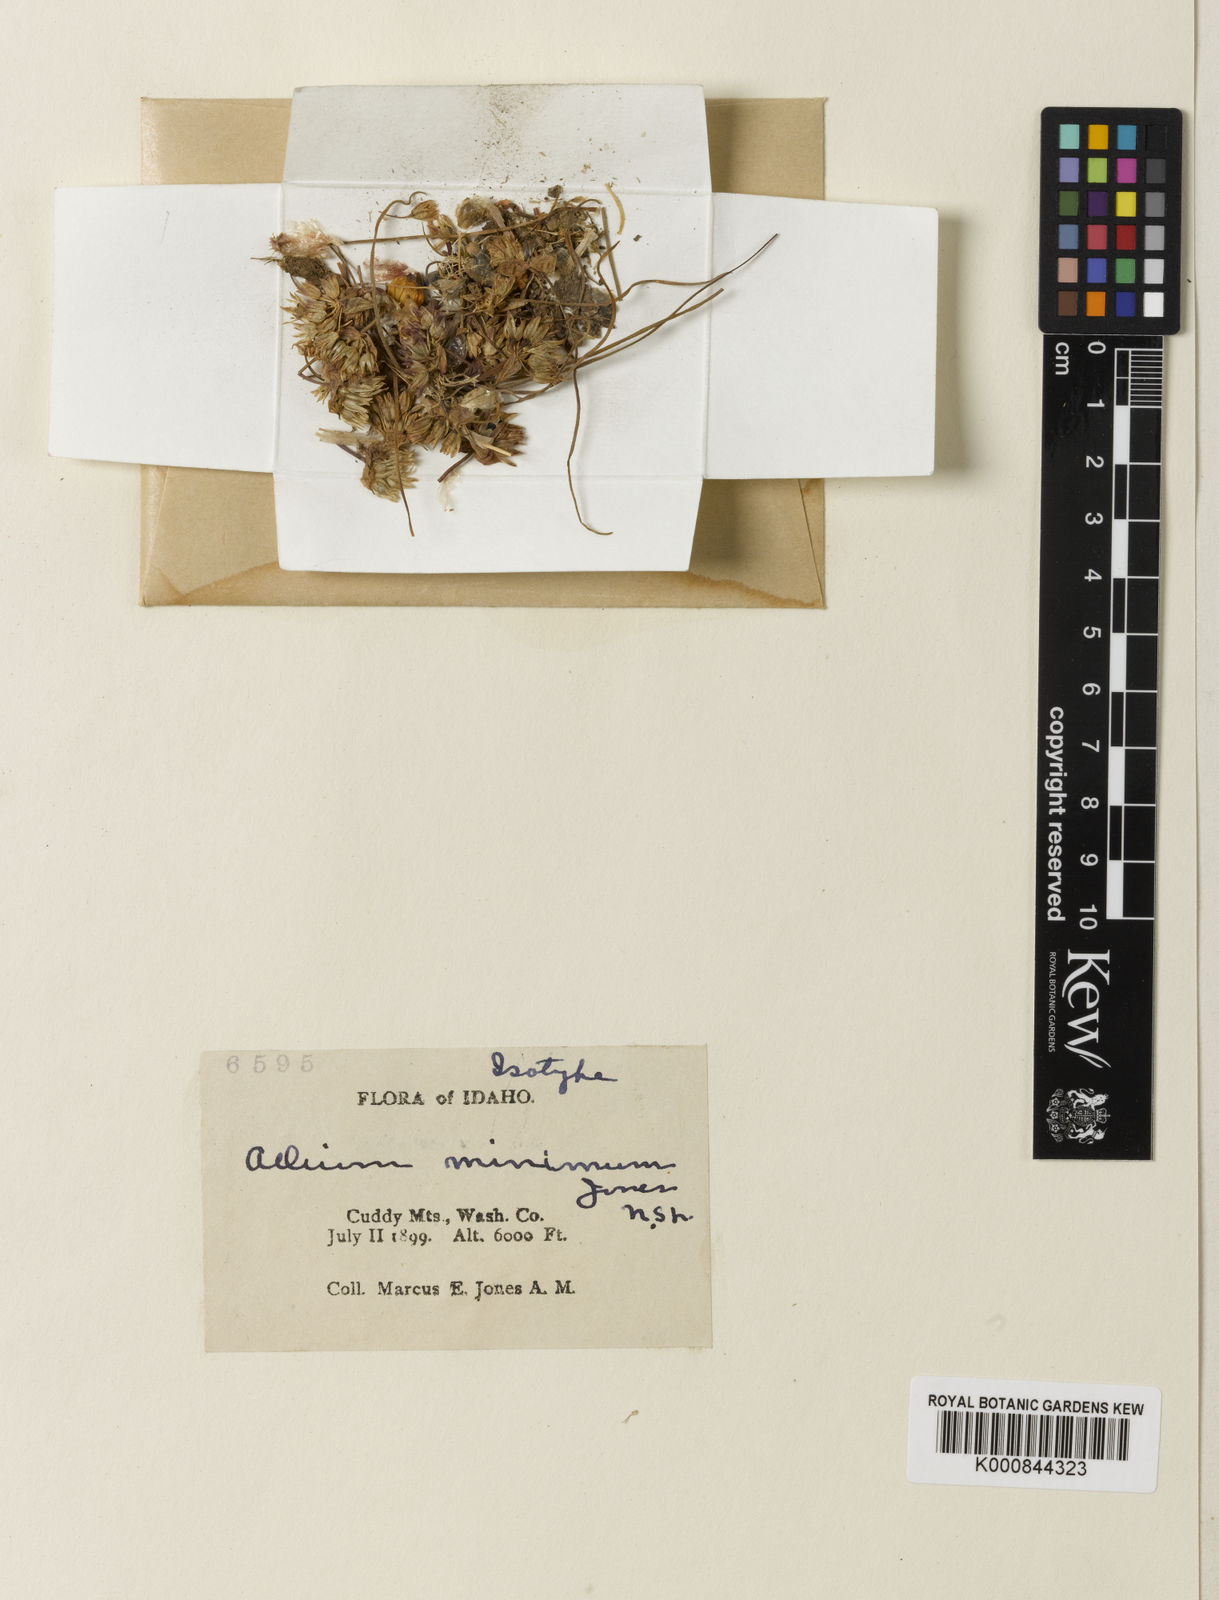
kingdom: Plantae
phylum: Tracheophyta
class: Liliopsida
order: Asparagales
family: Amaryllidaceae
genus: Allium
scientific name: Allium brandegeei
